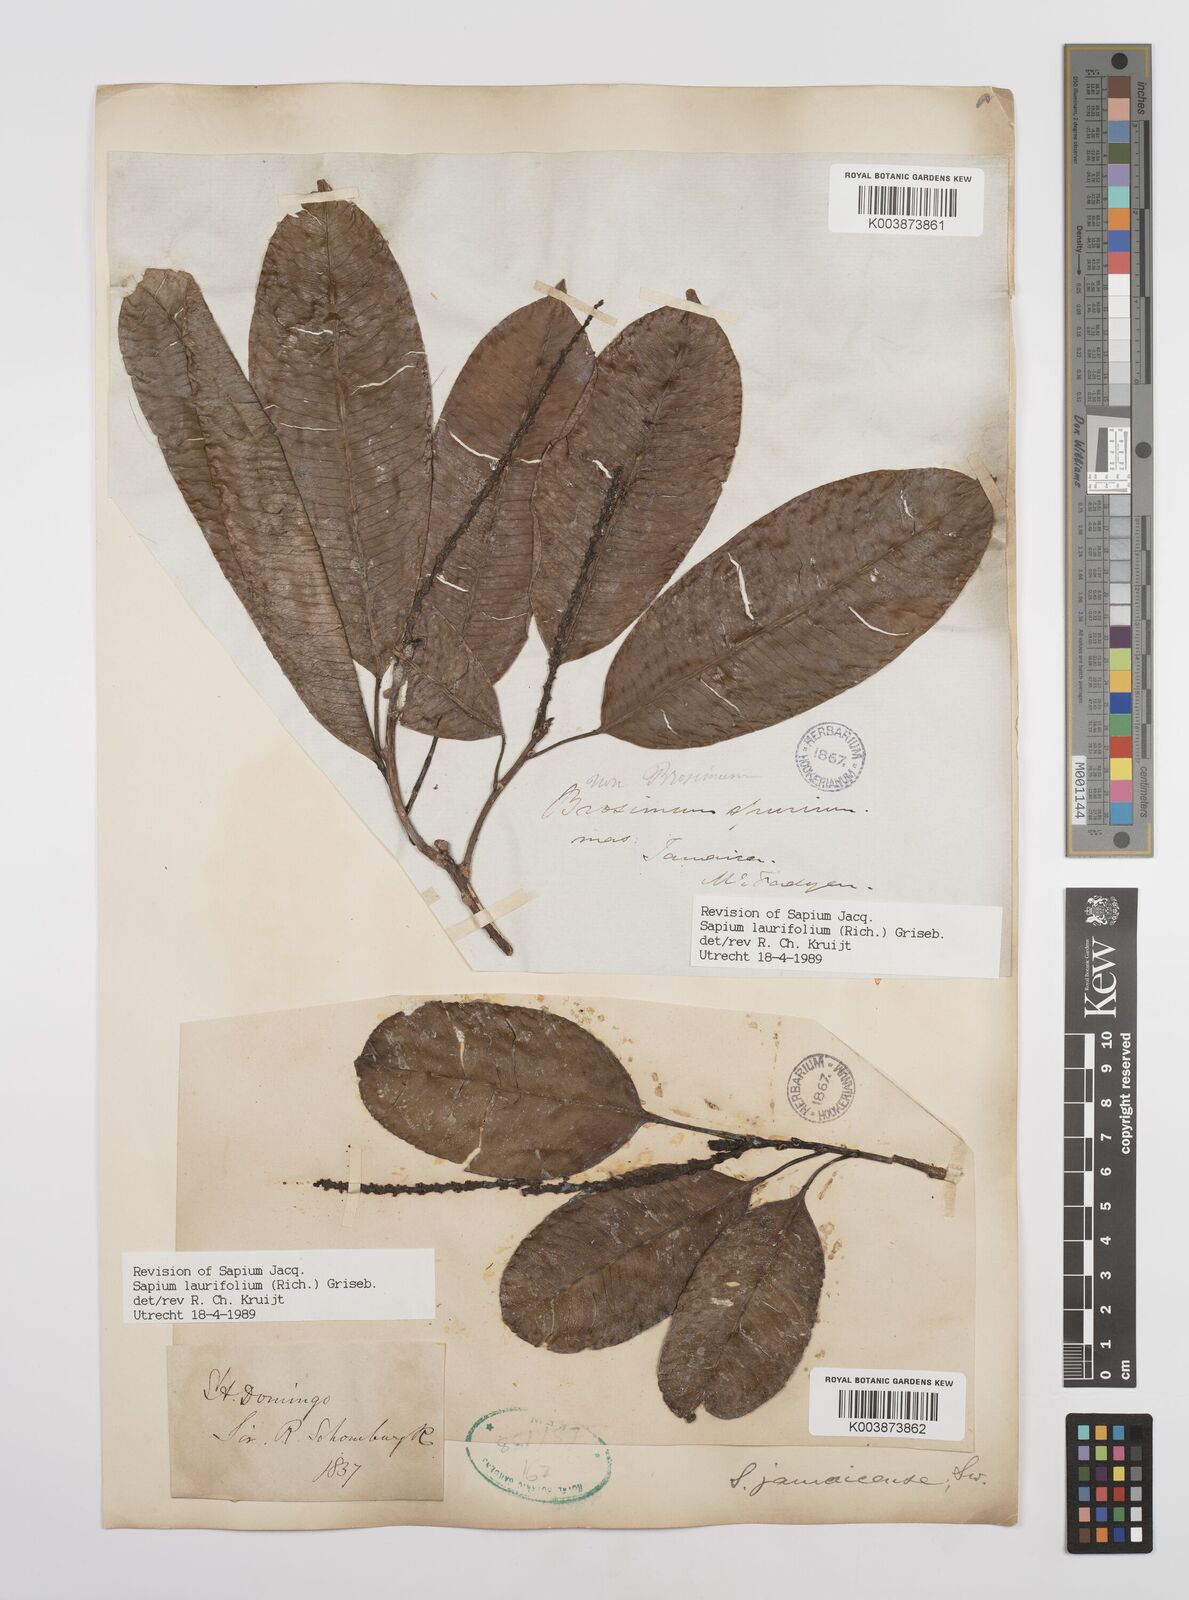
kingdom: Plantae
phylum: Tracheophyta
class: Magnoliopsida
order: Malpighiales
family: Euphorbiaceae
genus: Sapium
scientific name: Sapium glandulosum
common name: Milktree
